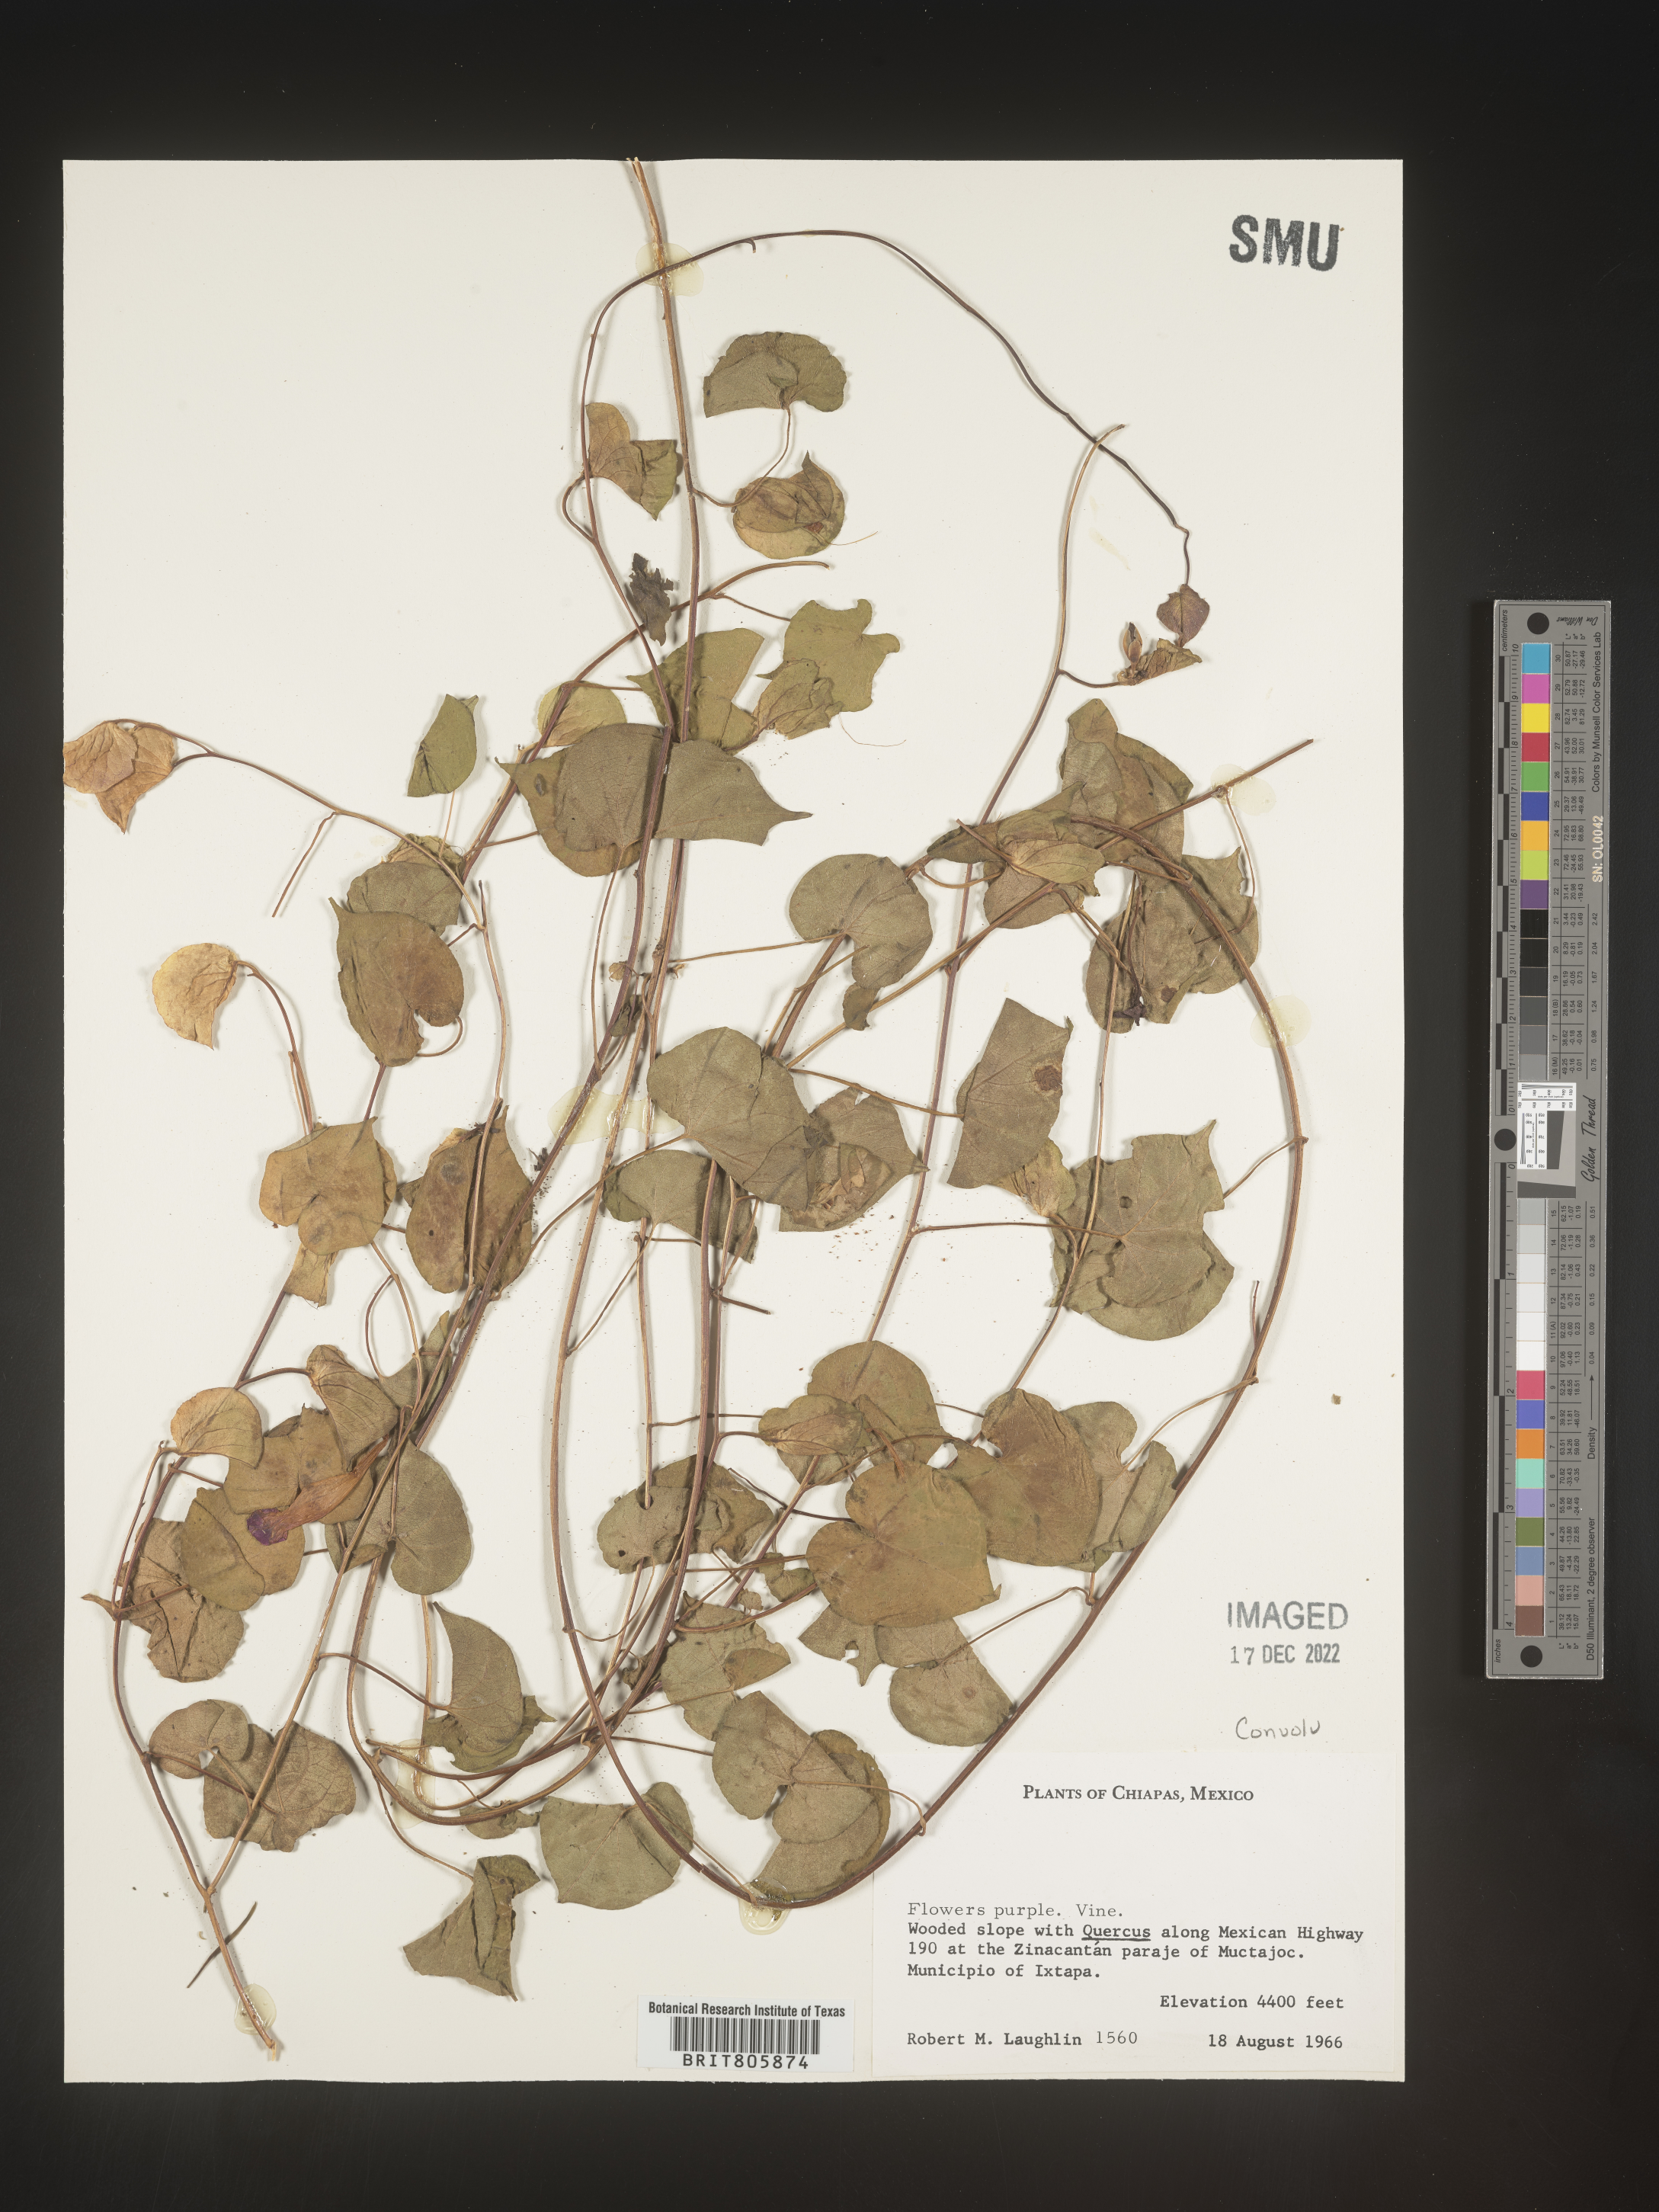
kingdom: Plantae
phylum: Tracheophyta
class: Magnoliopsida
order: Solanales
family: Convolvulaceae
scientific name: Convolvulaceae
